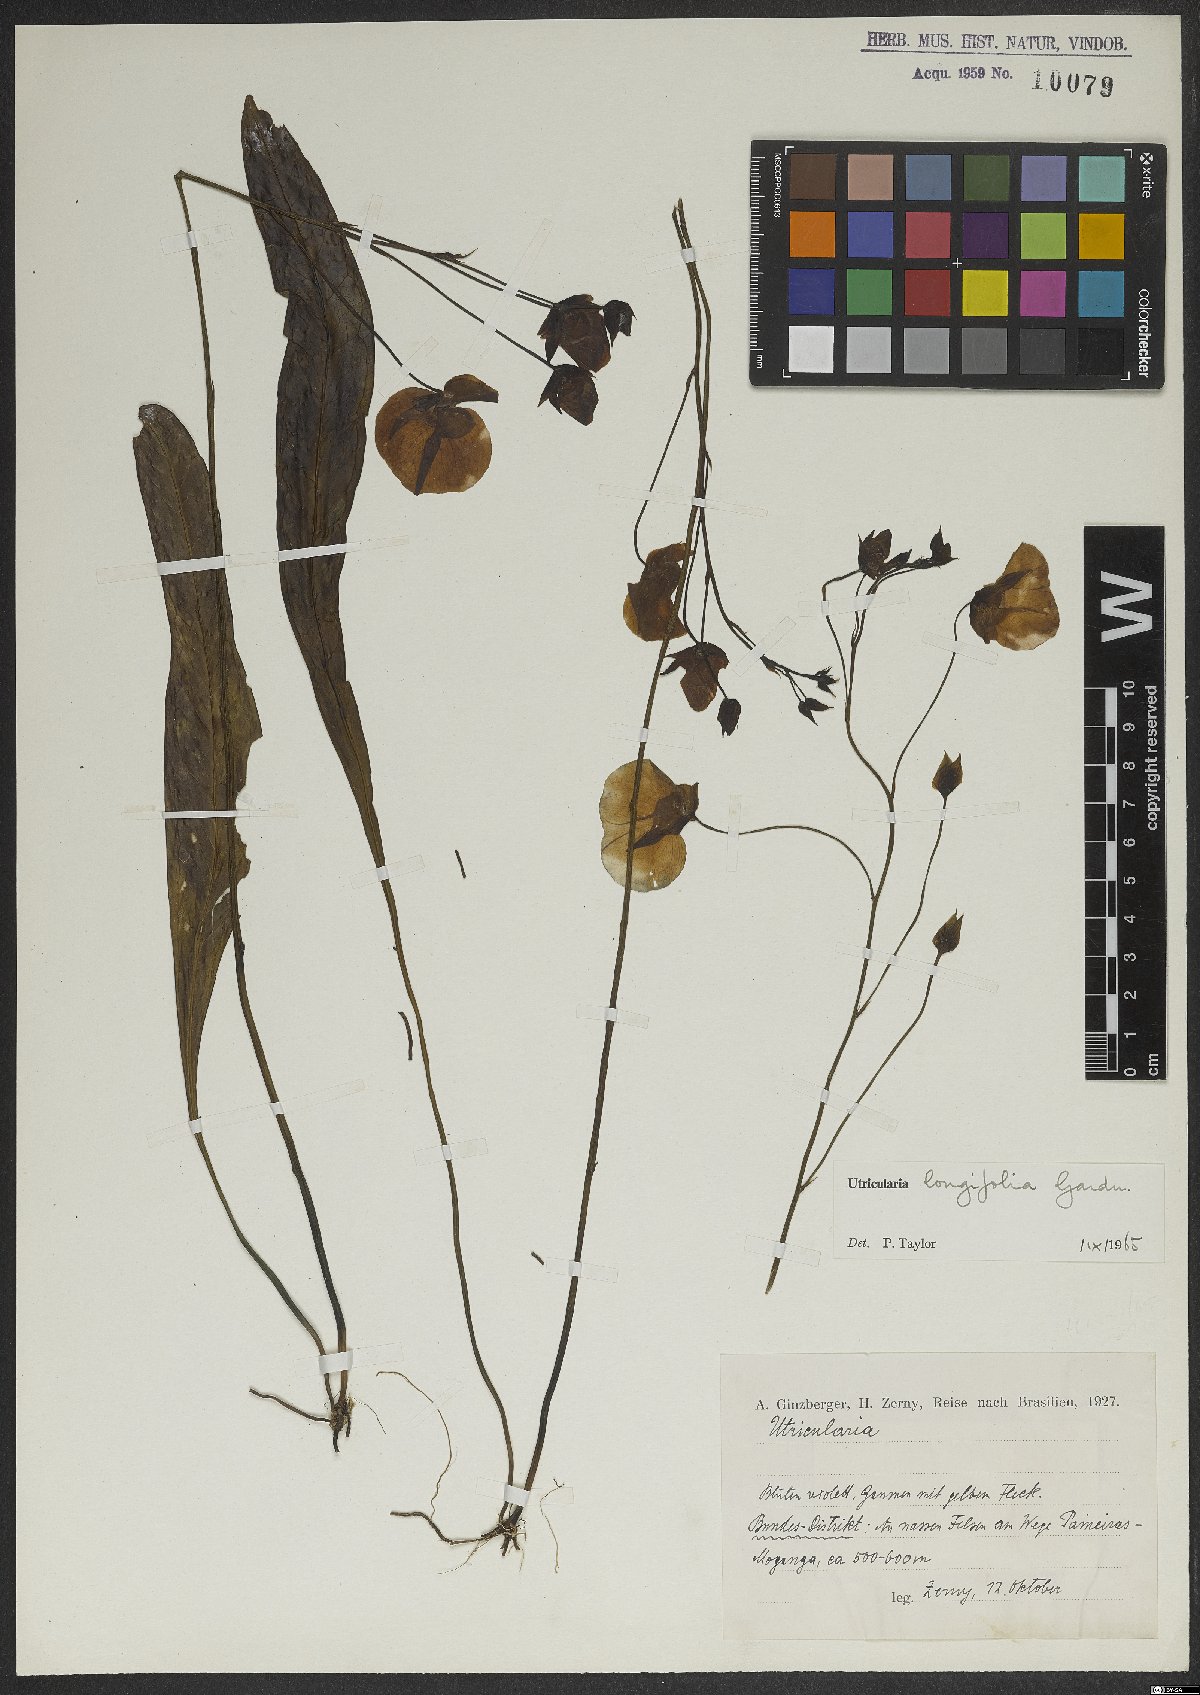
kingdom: Plantae
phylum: Tracheophyta
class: Magnoliopsida
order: Lamiales
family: Lentibulariaceae
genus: Utricularia
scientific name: Utricularia longifolia
